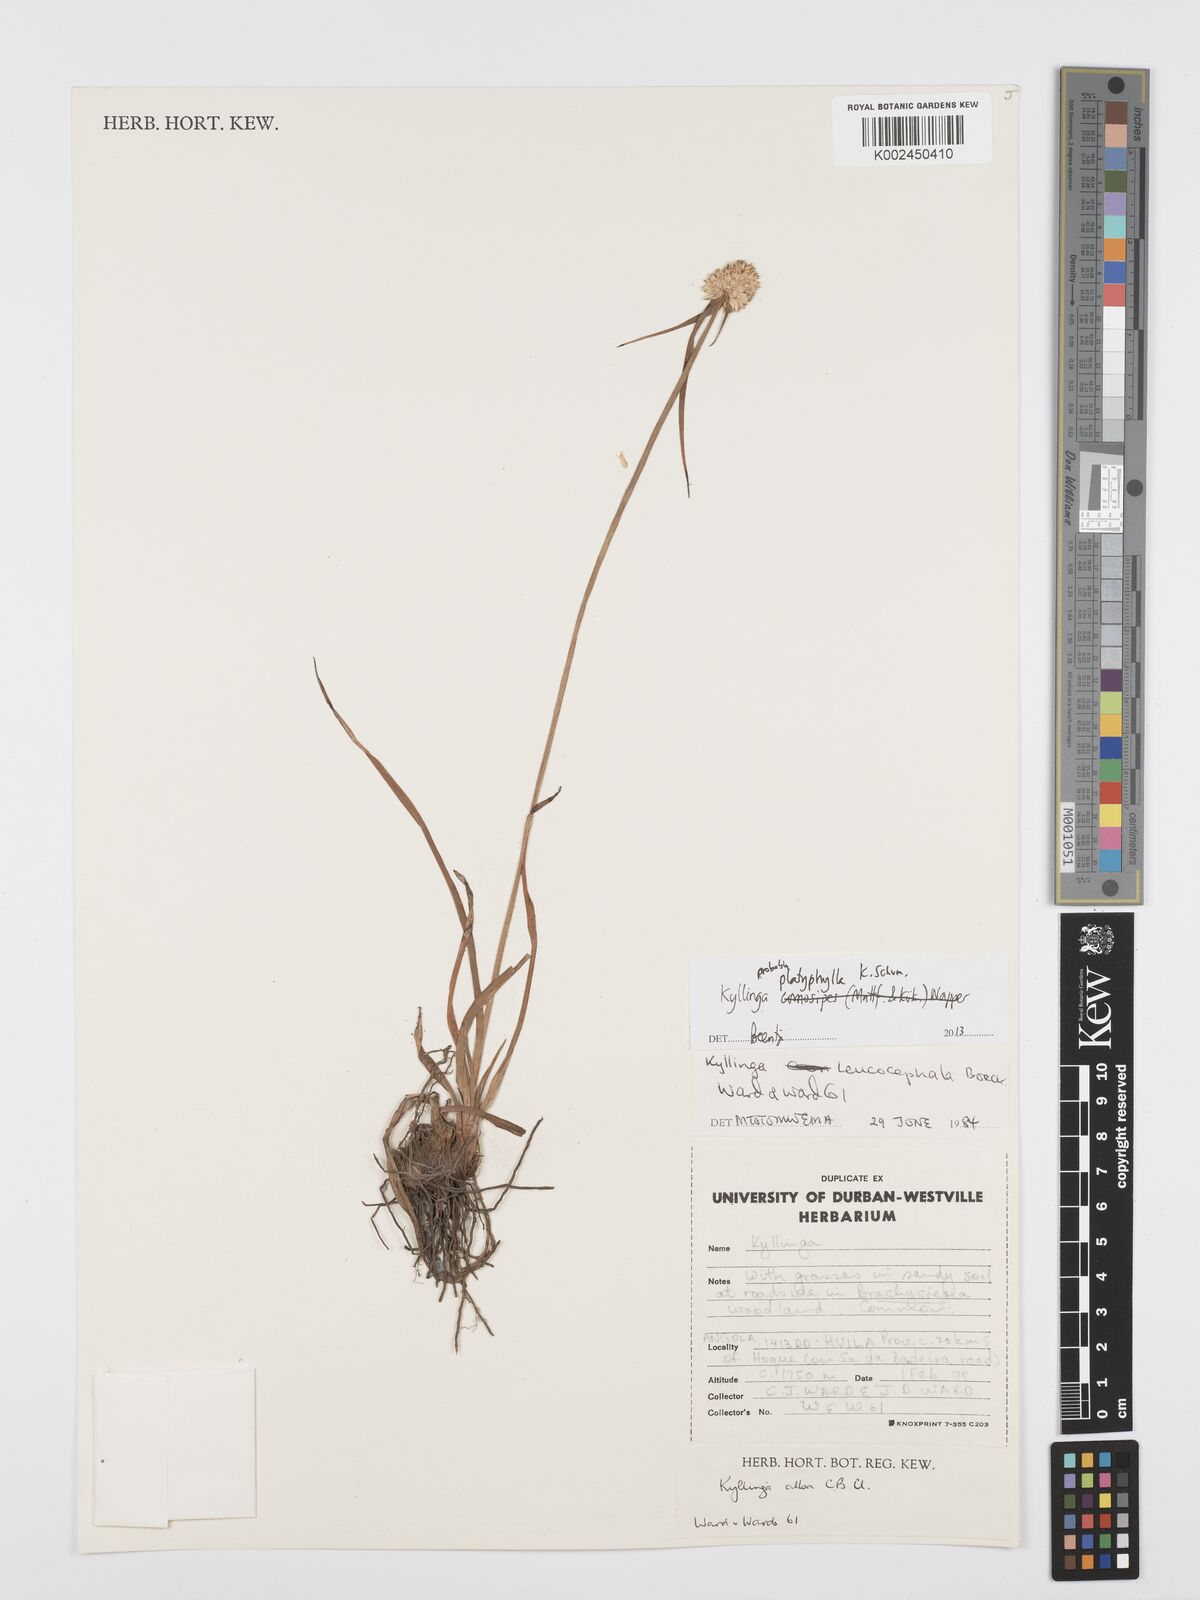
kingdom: Plantae
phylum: Tracheophyta
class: Liliopsida
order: Poales
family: Cyperaceae
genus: Cyperus
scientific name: Cyperus ciliatopilosus
